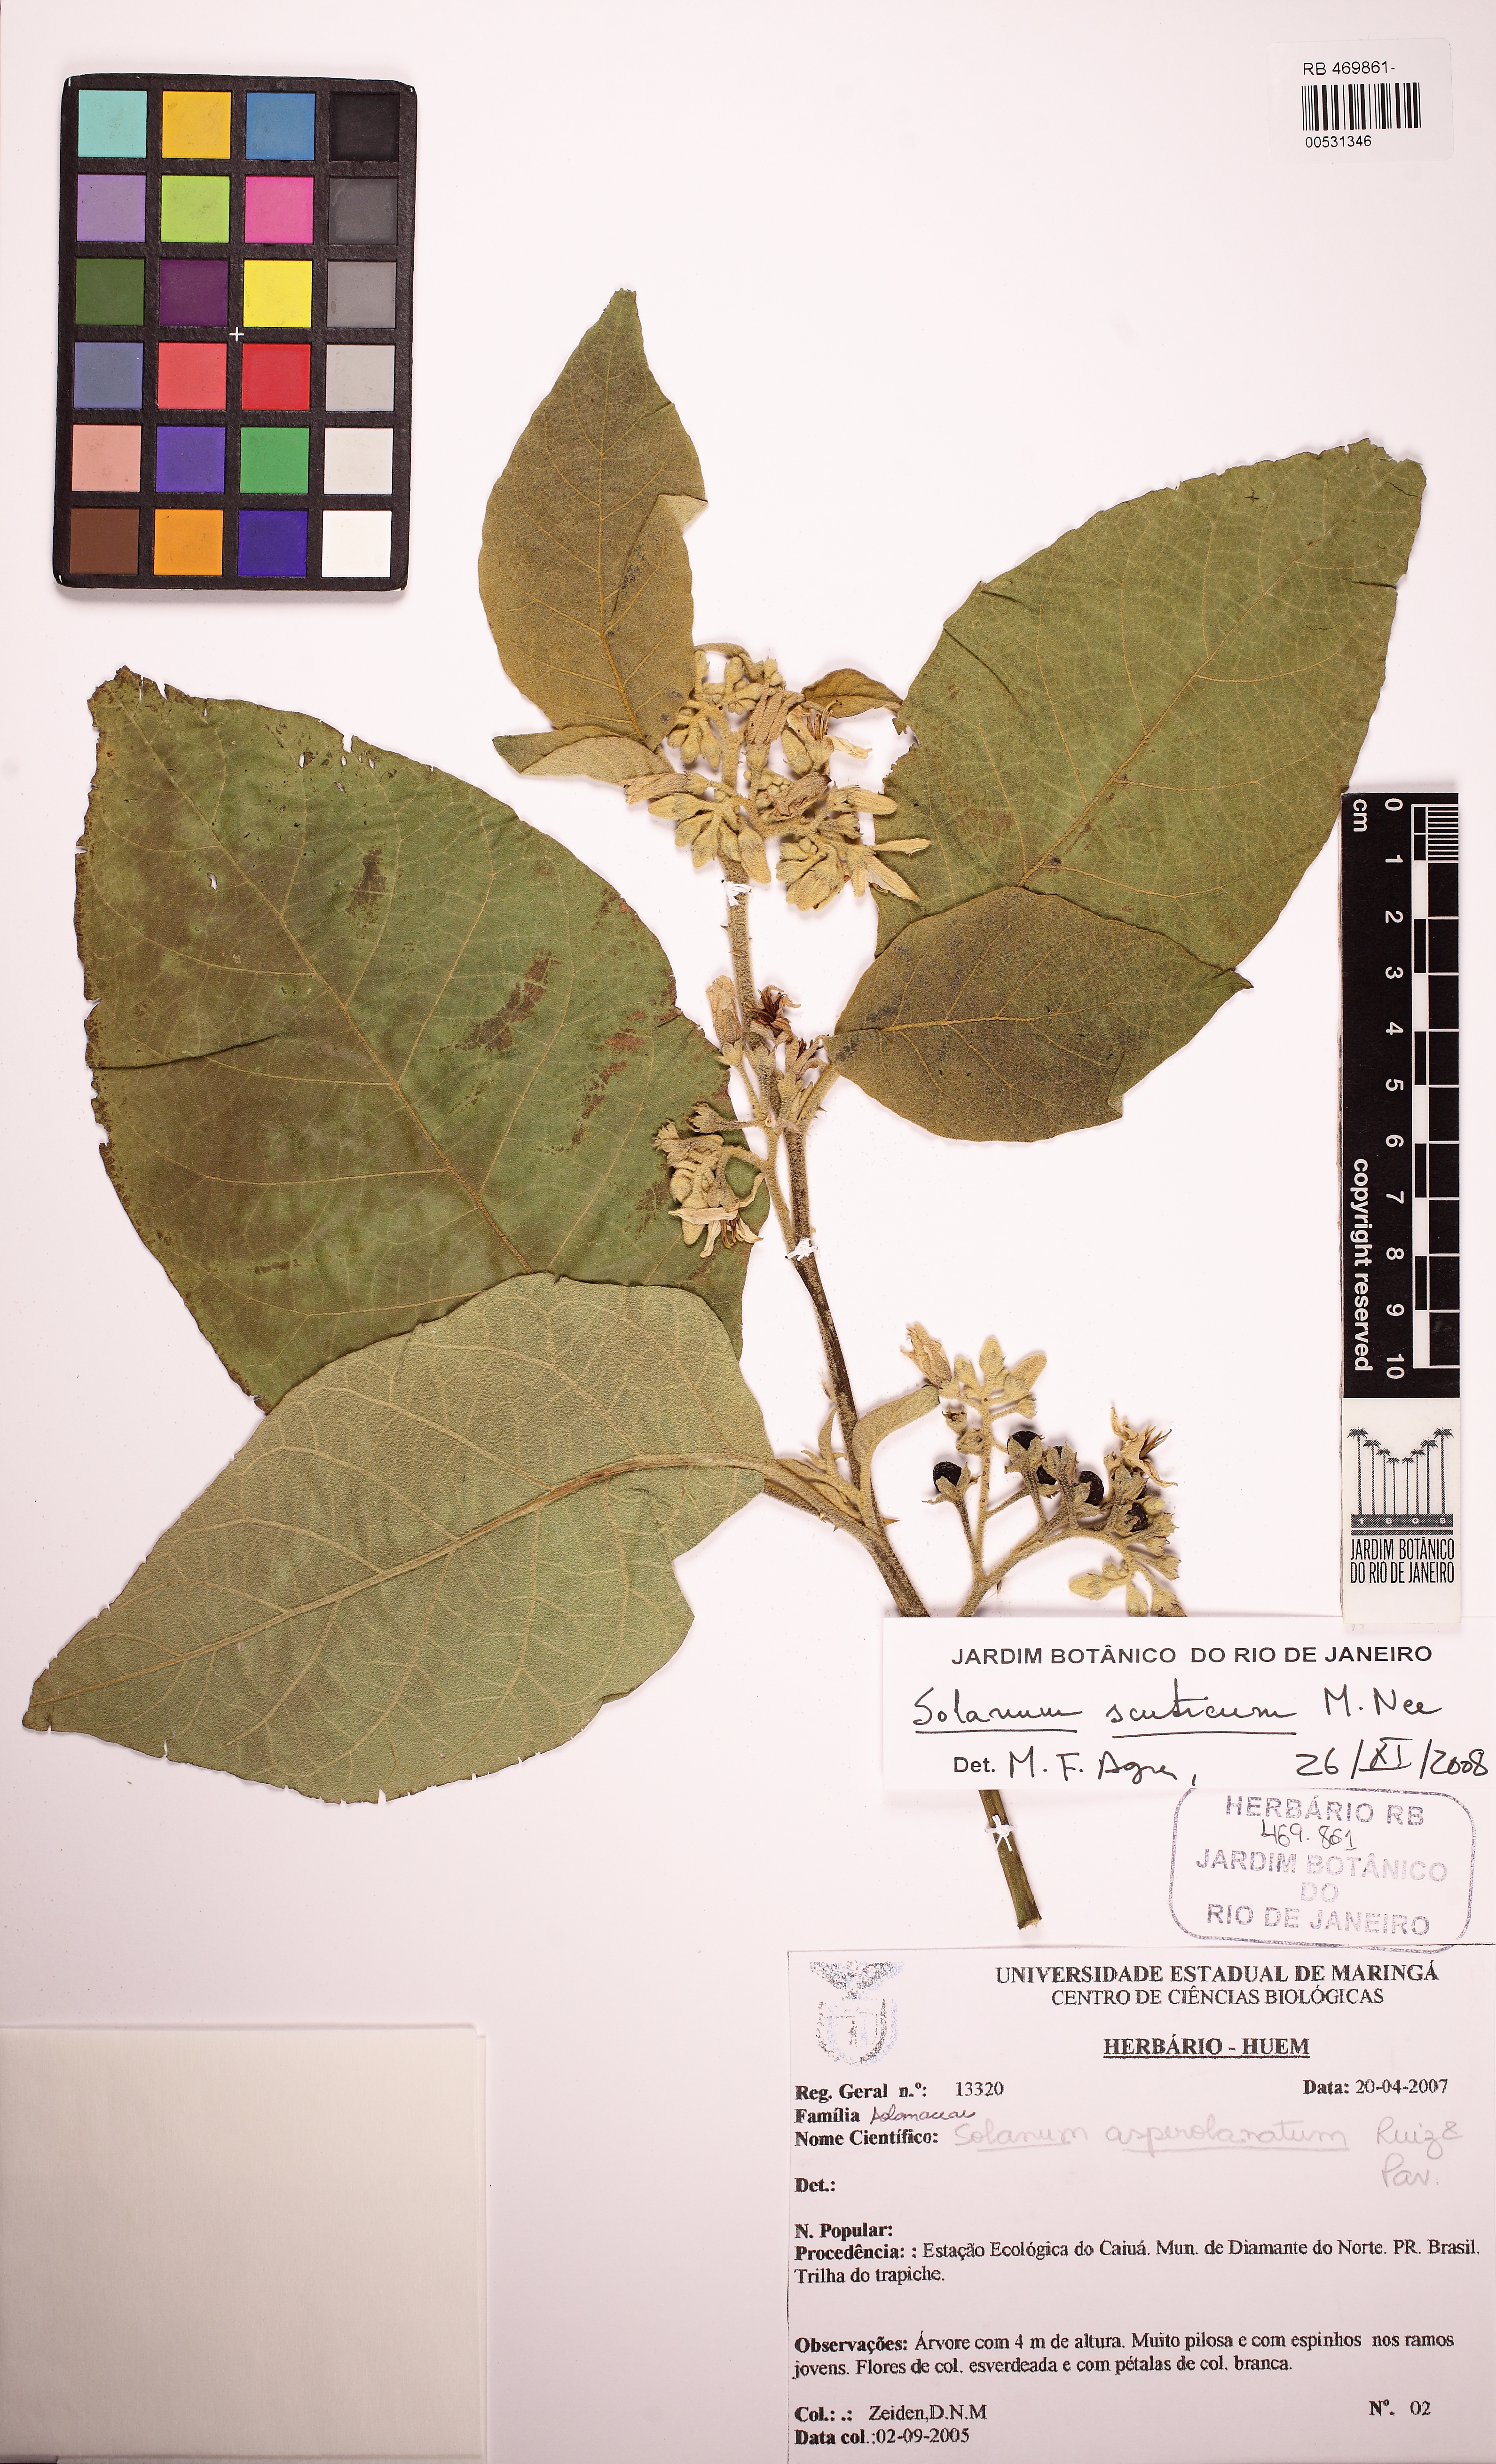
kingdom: Plantae
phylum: Tracheophyta
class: Magnoliopsida
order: Solanales
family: Solanaceae
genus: Solanum
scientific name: Solanum scuticum
